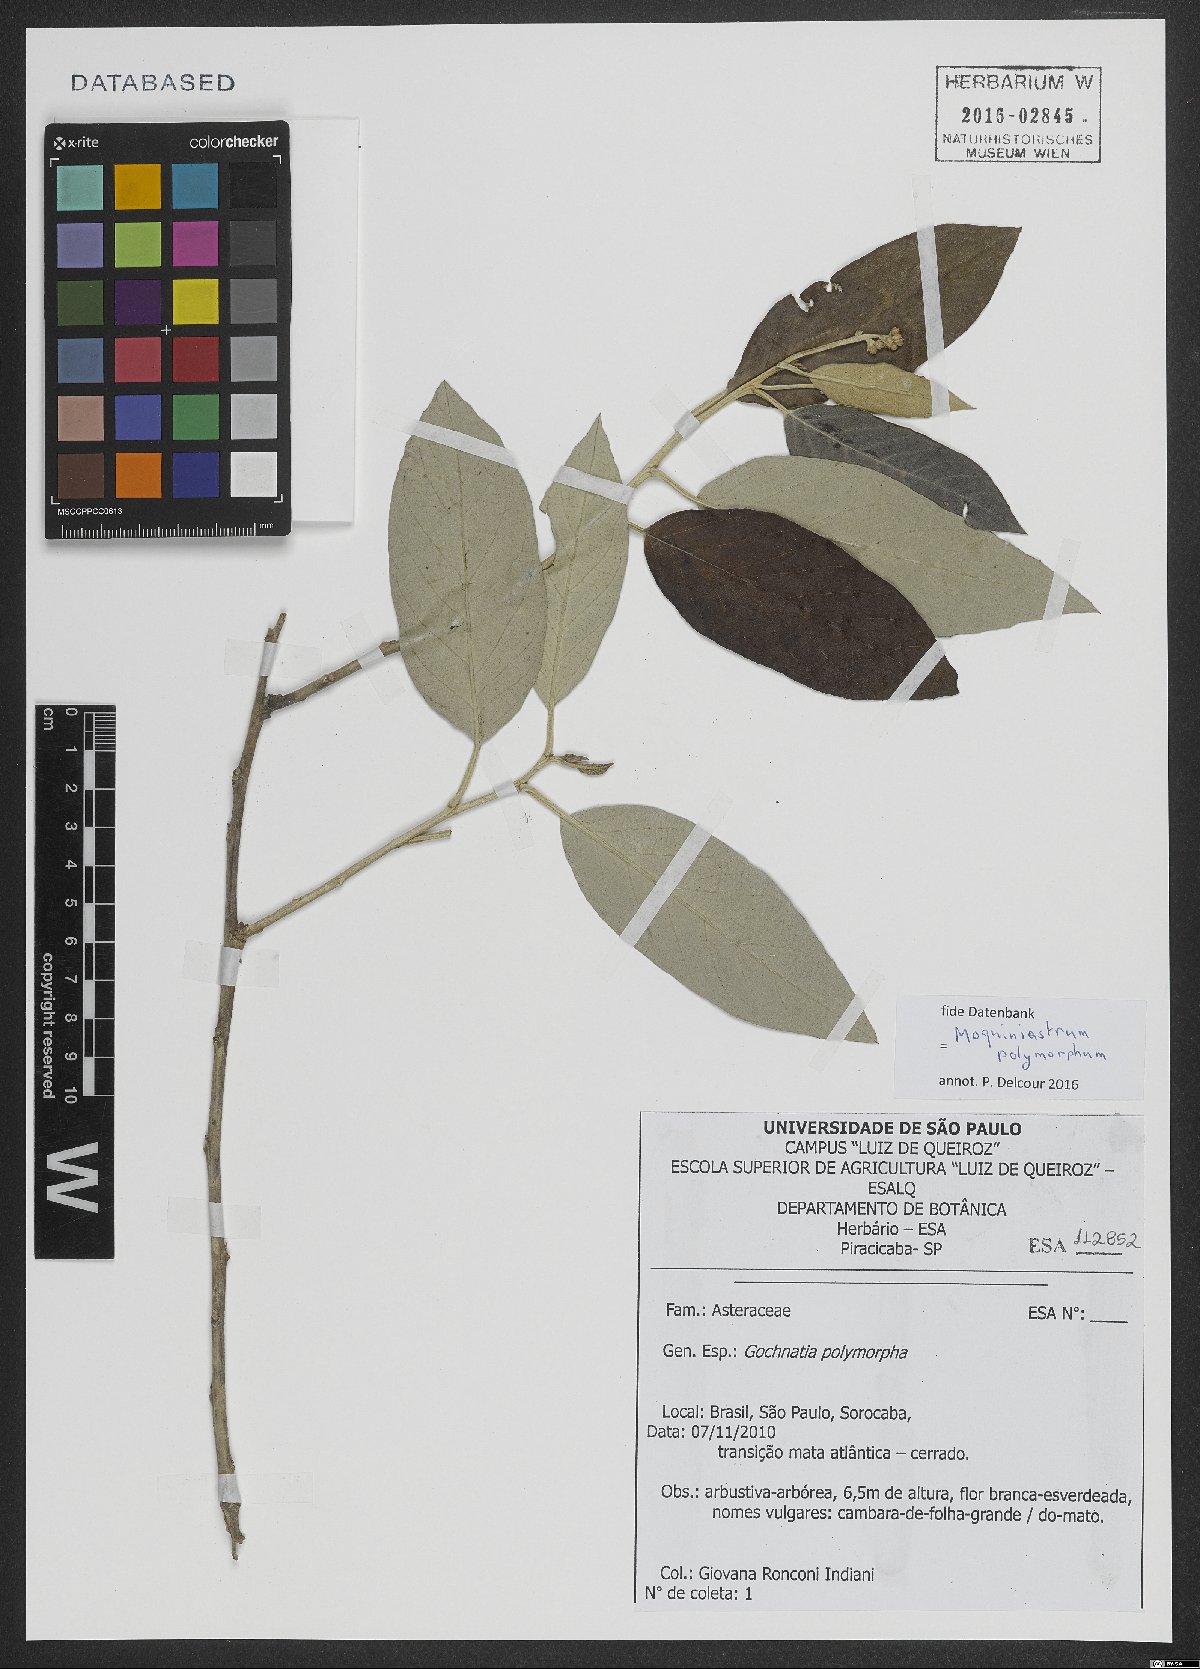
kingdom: Plantae
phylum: Tracheophyta
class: Magnoliopsida
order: Asterales
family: Asteraceae
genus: Moquiniastrum
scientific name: Moquiniastrum polymorphum
